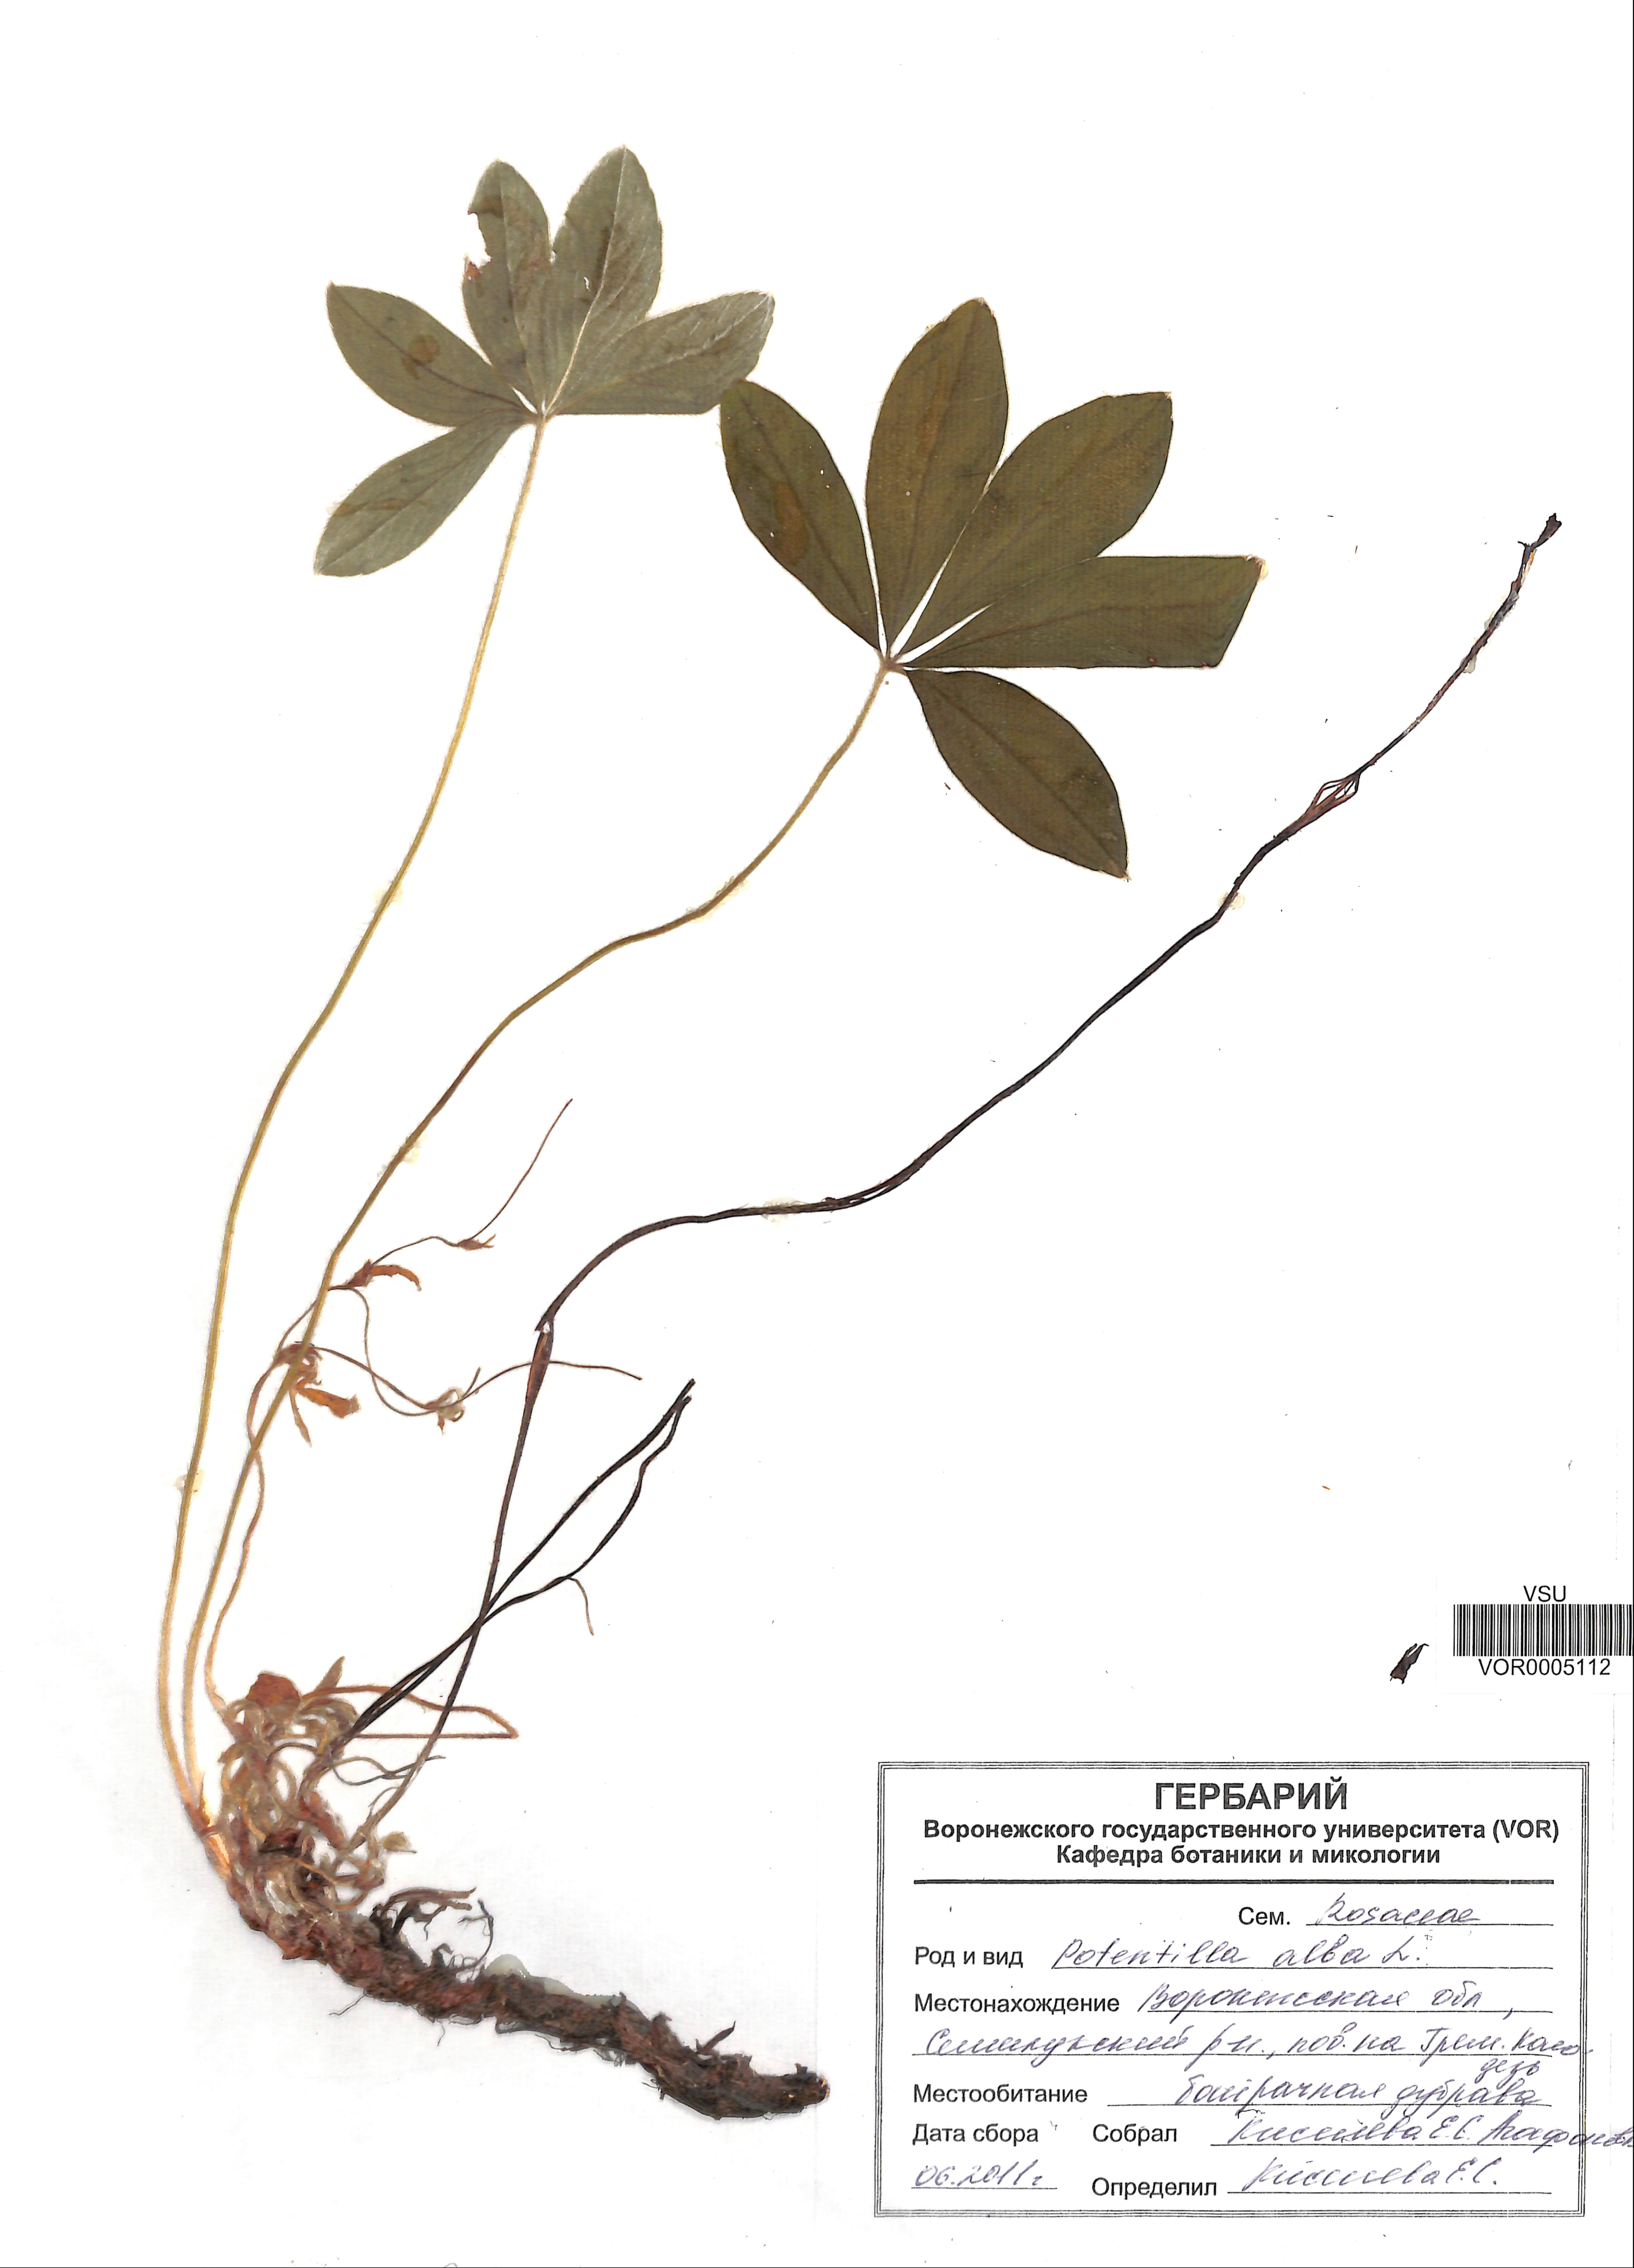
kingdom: Plantae
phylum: Tracheophyta
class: Magnoliopsida
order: Rosales
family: Rosaceae
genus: Potentilla
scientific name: Potentilla alba
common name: White cinquefoil
